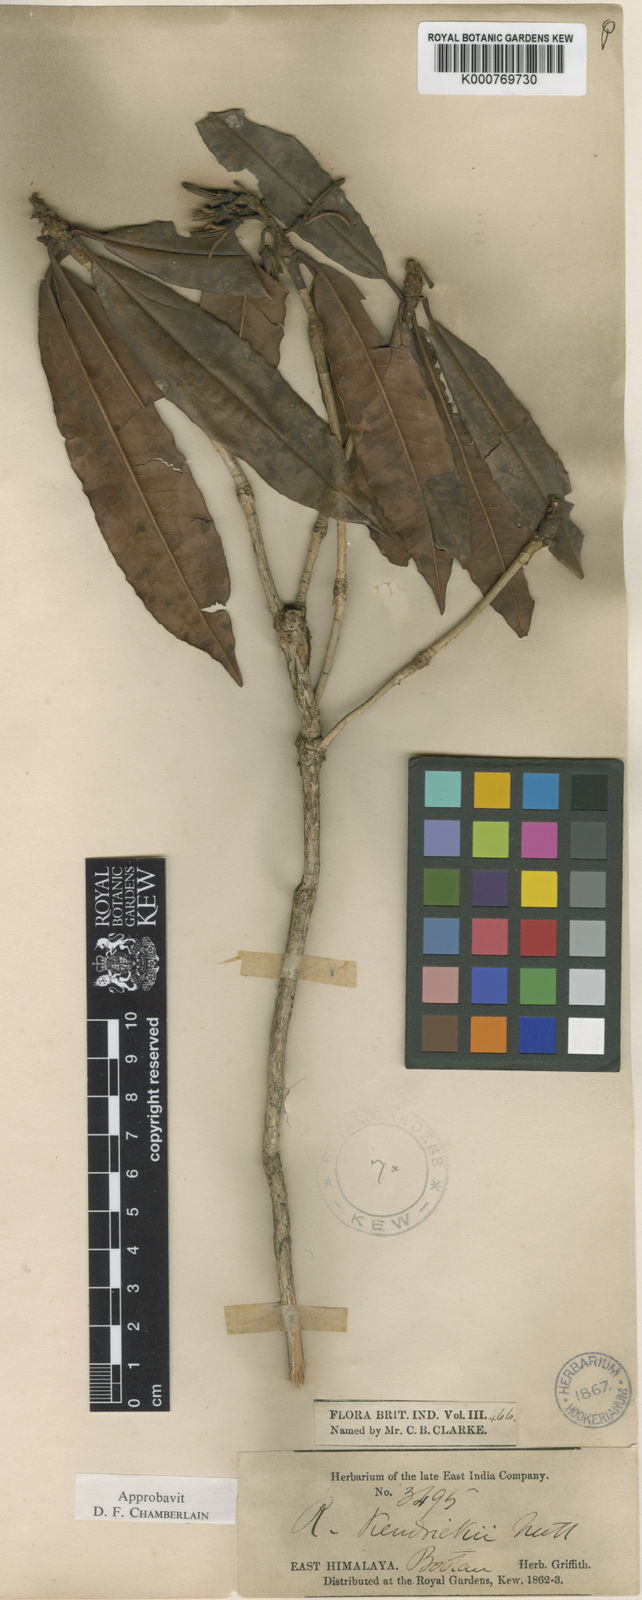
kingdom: Plantae
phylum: Tracheophyta
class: Magnoliopsida
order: Ericales
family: Ericaceae
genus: Rhododendron
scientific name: Rhododendron kendrickii
